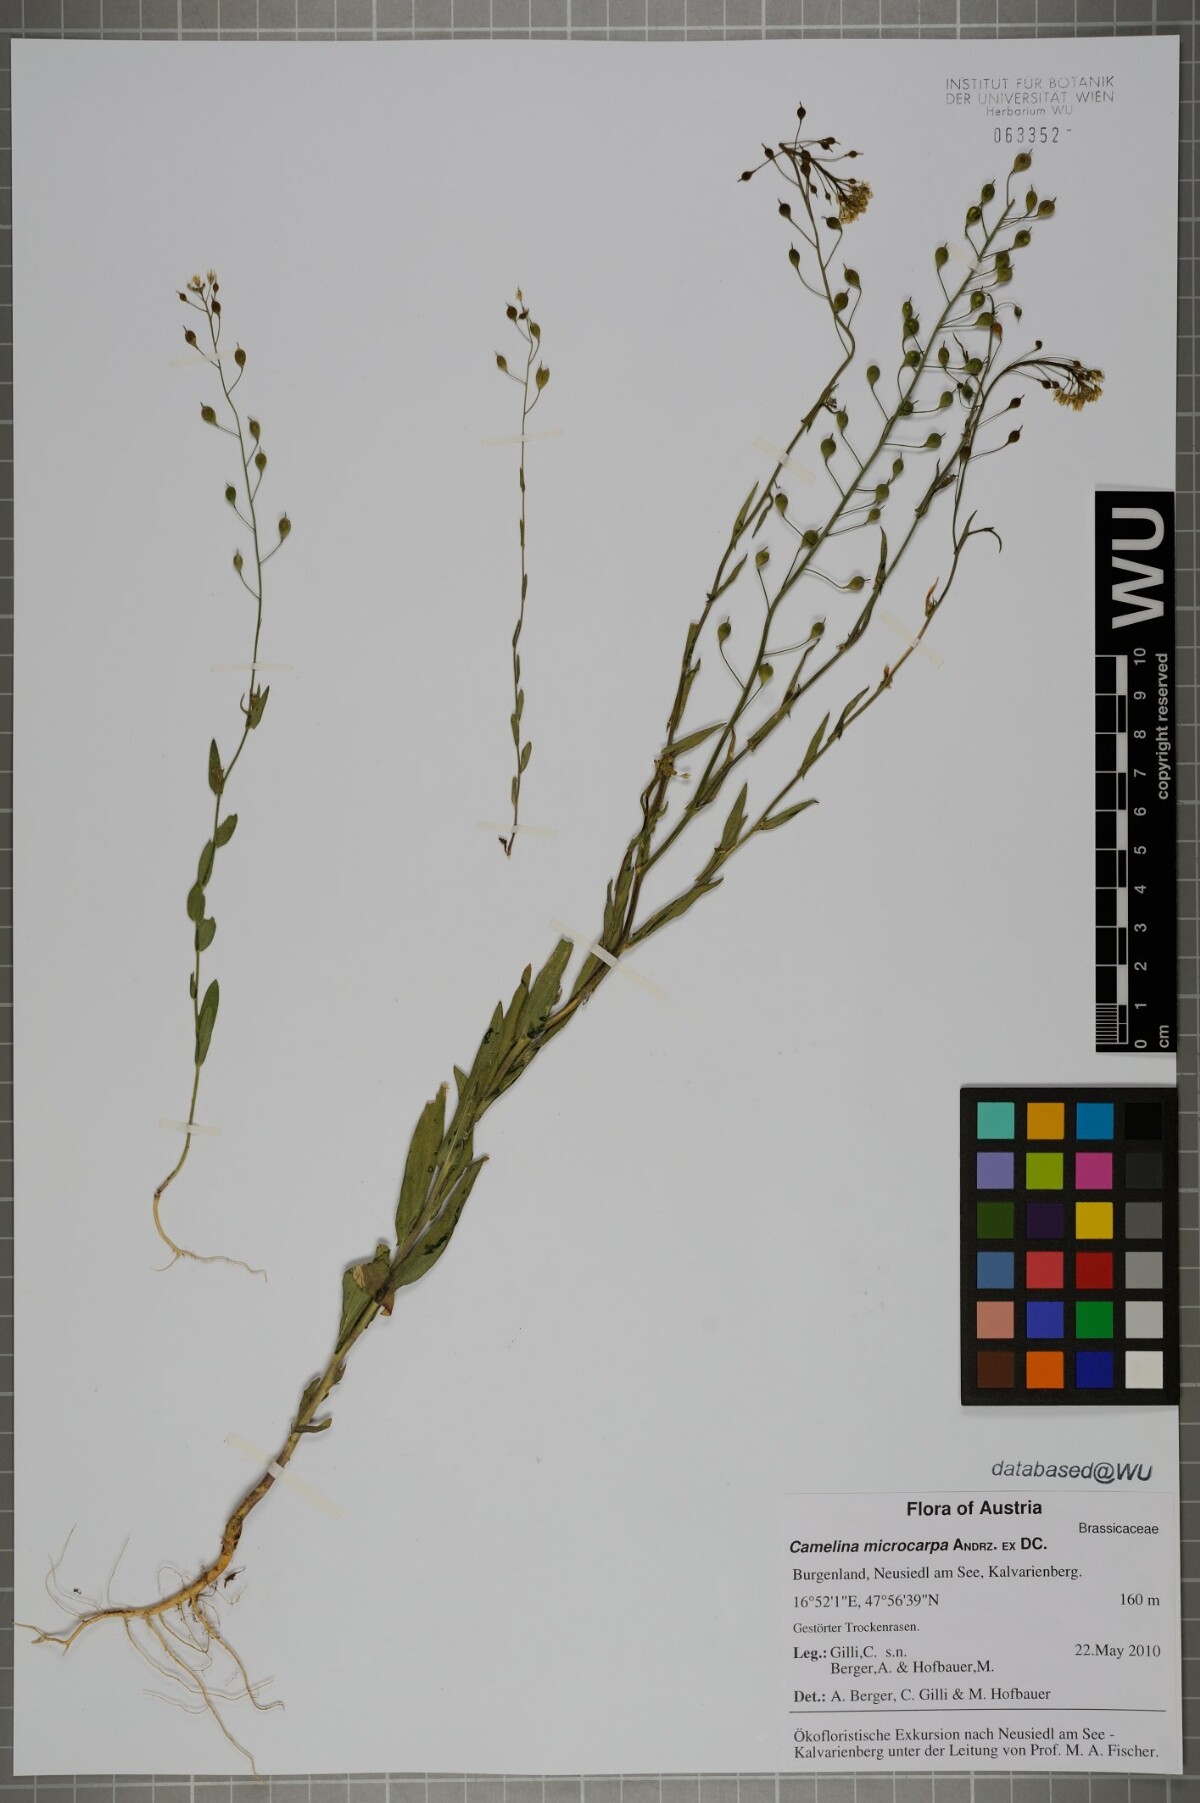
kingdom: Plantae
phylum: Tracheophyta
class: Magnoliopsida
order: Brassicales
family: Brassicaceae
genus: Camelina
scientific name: Camelina microcarpa
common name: Lesser gold-of-pleasure
